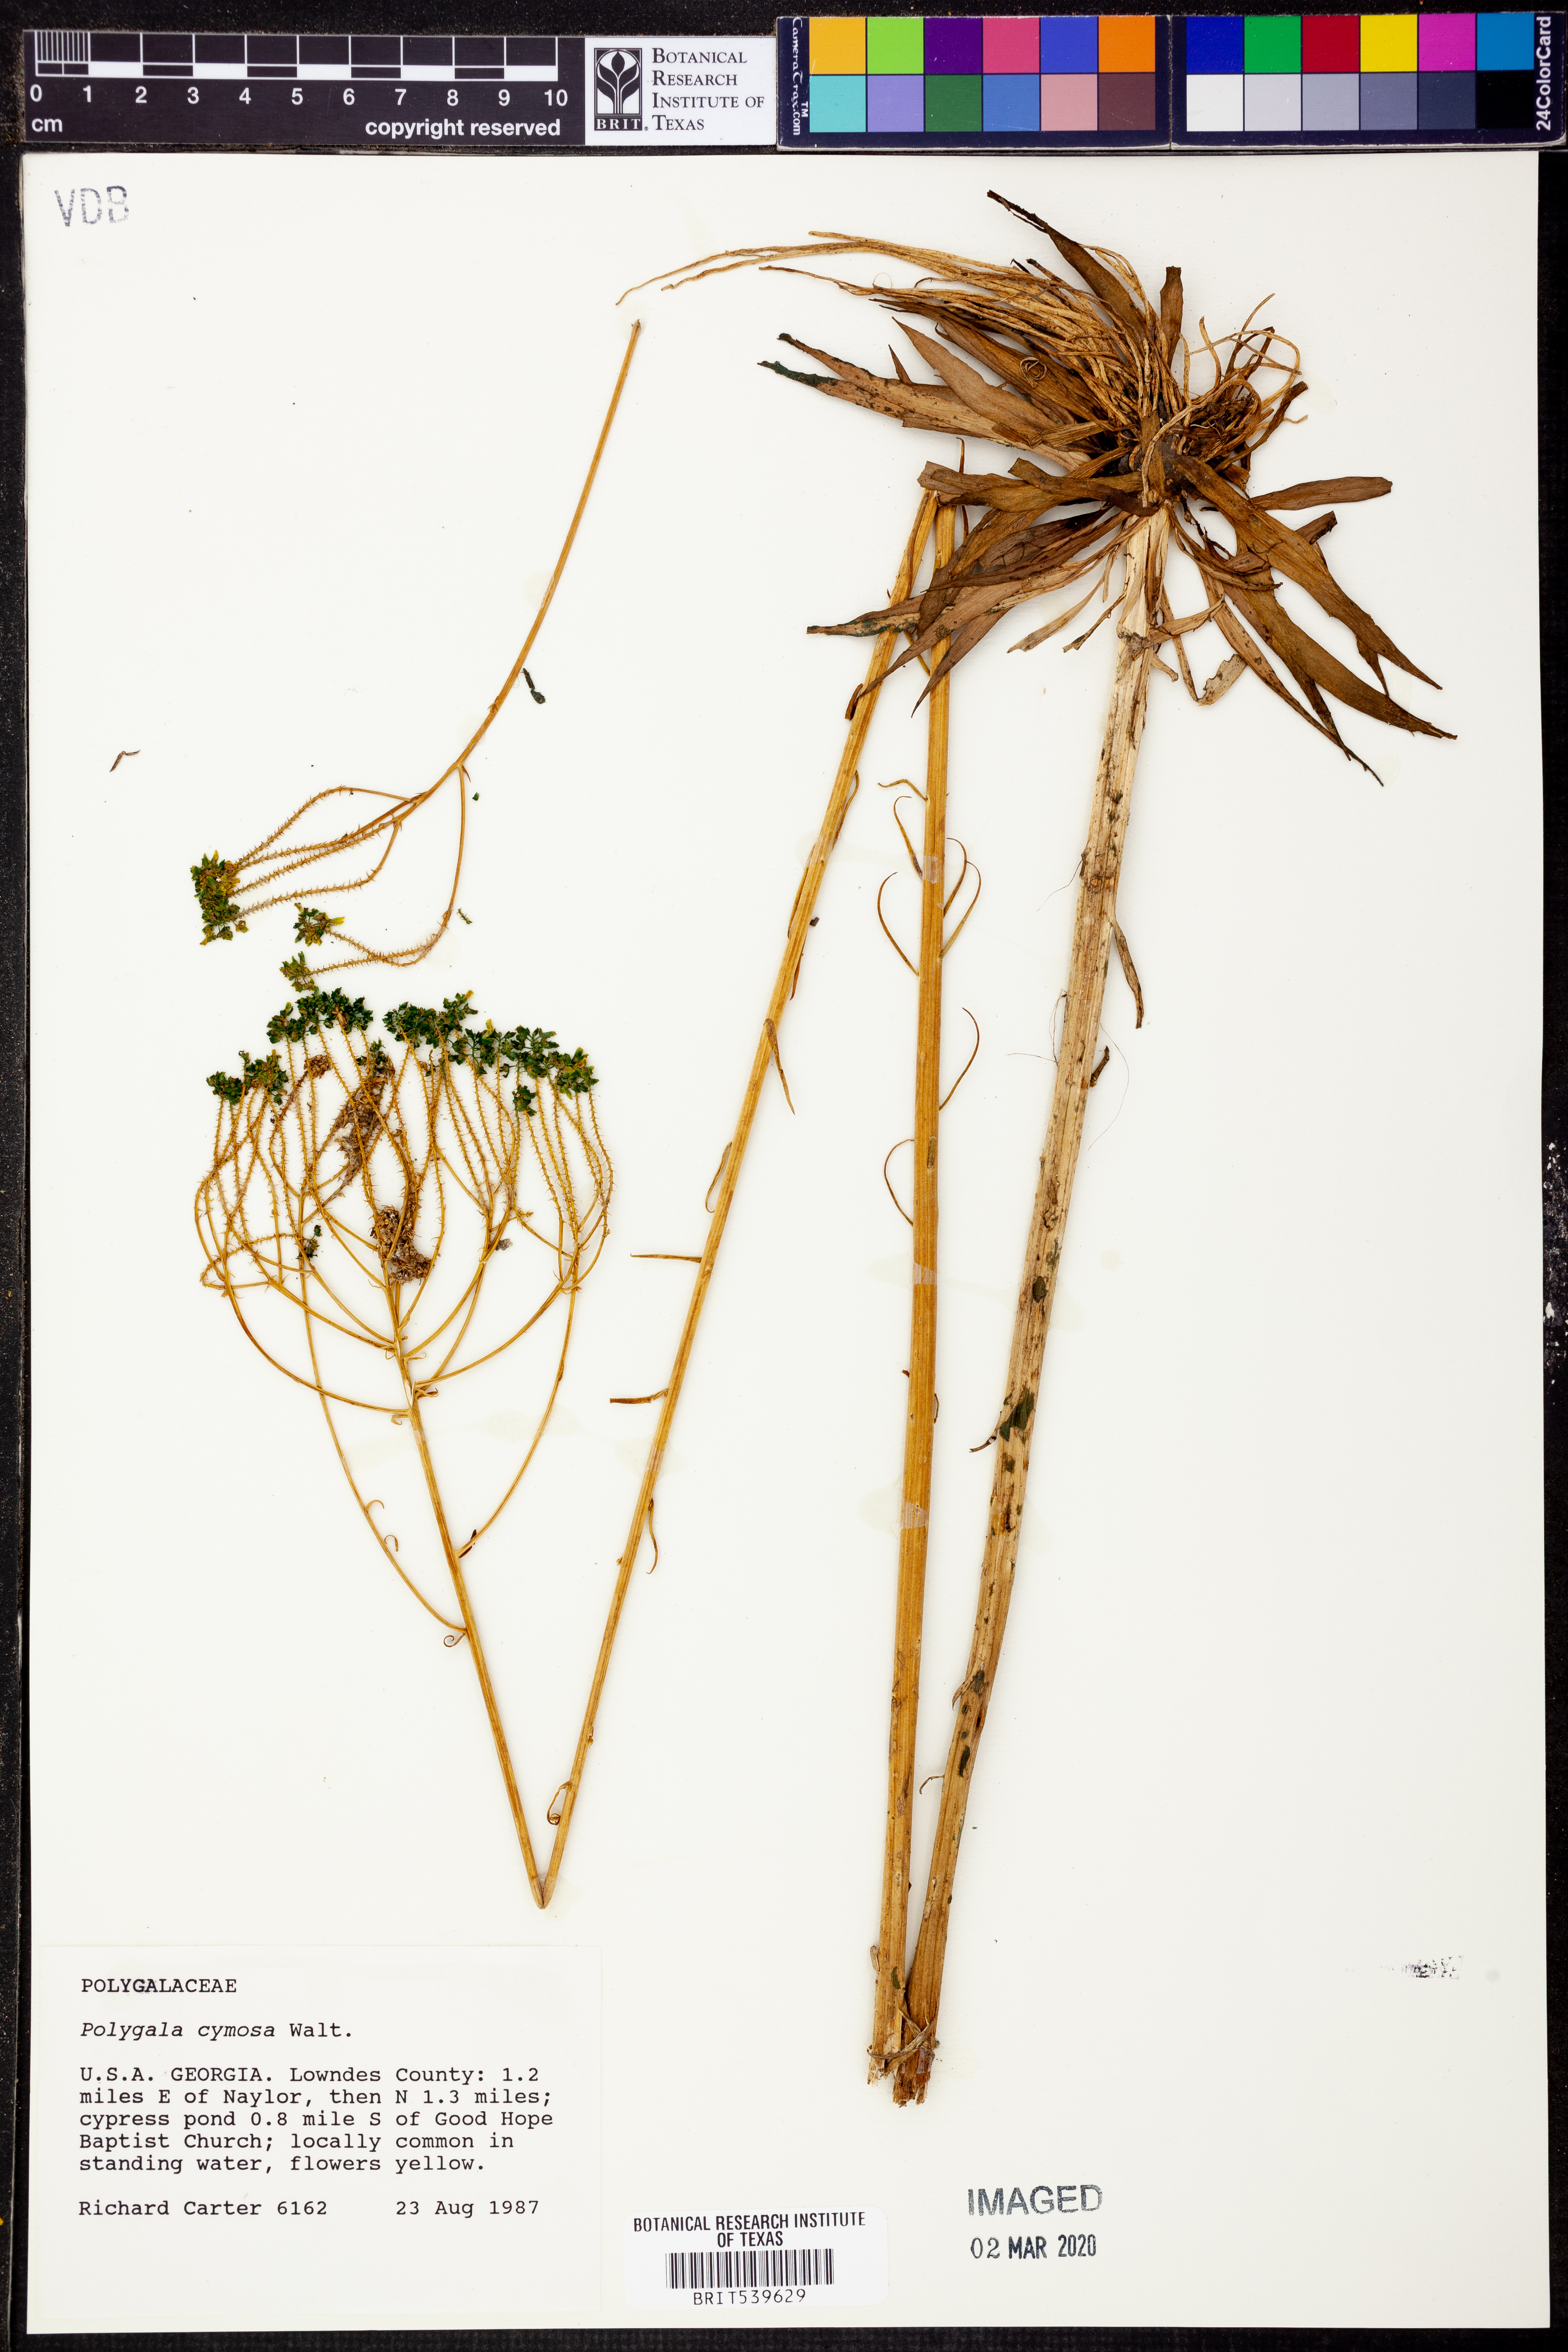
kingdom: Plantae
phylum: Tracheophyta
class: Magnoliopsida
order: Fabales
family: Polygalaceae
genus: Polygala
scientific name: Polygala cymosa
